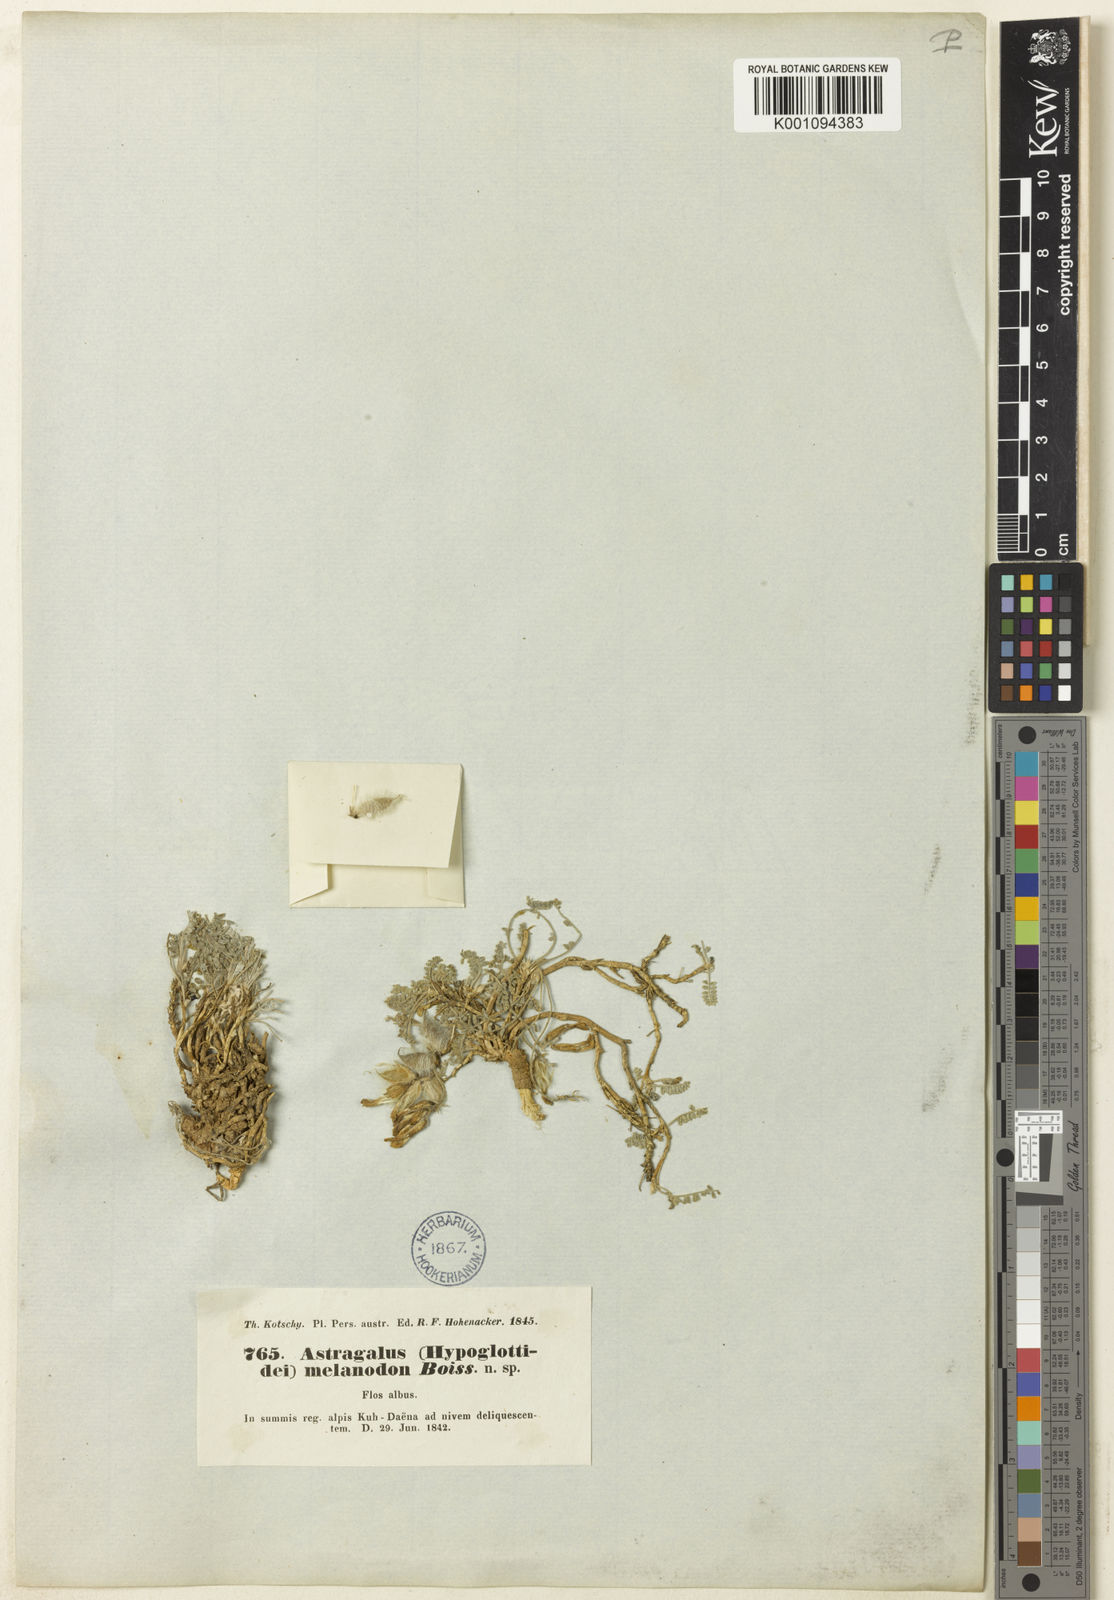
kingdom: Plantae
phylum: Tracheophyta
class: Magnoliopsida
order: Fabales
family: Fabaceae
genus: Astragalus
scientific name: Astragalus
